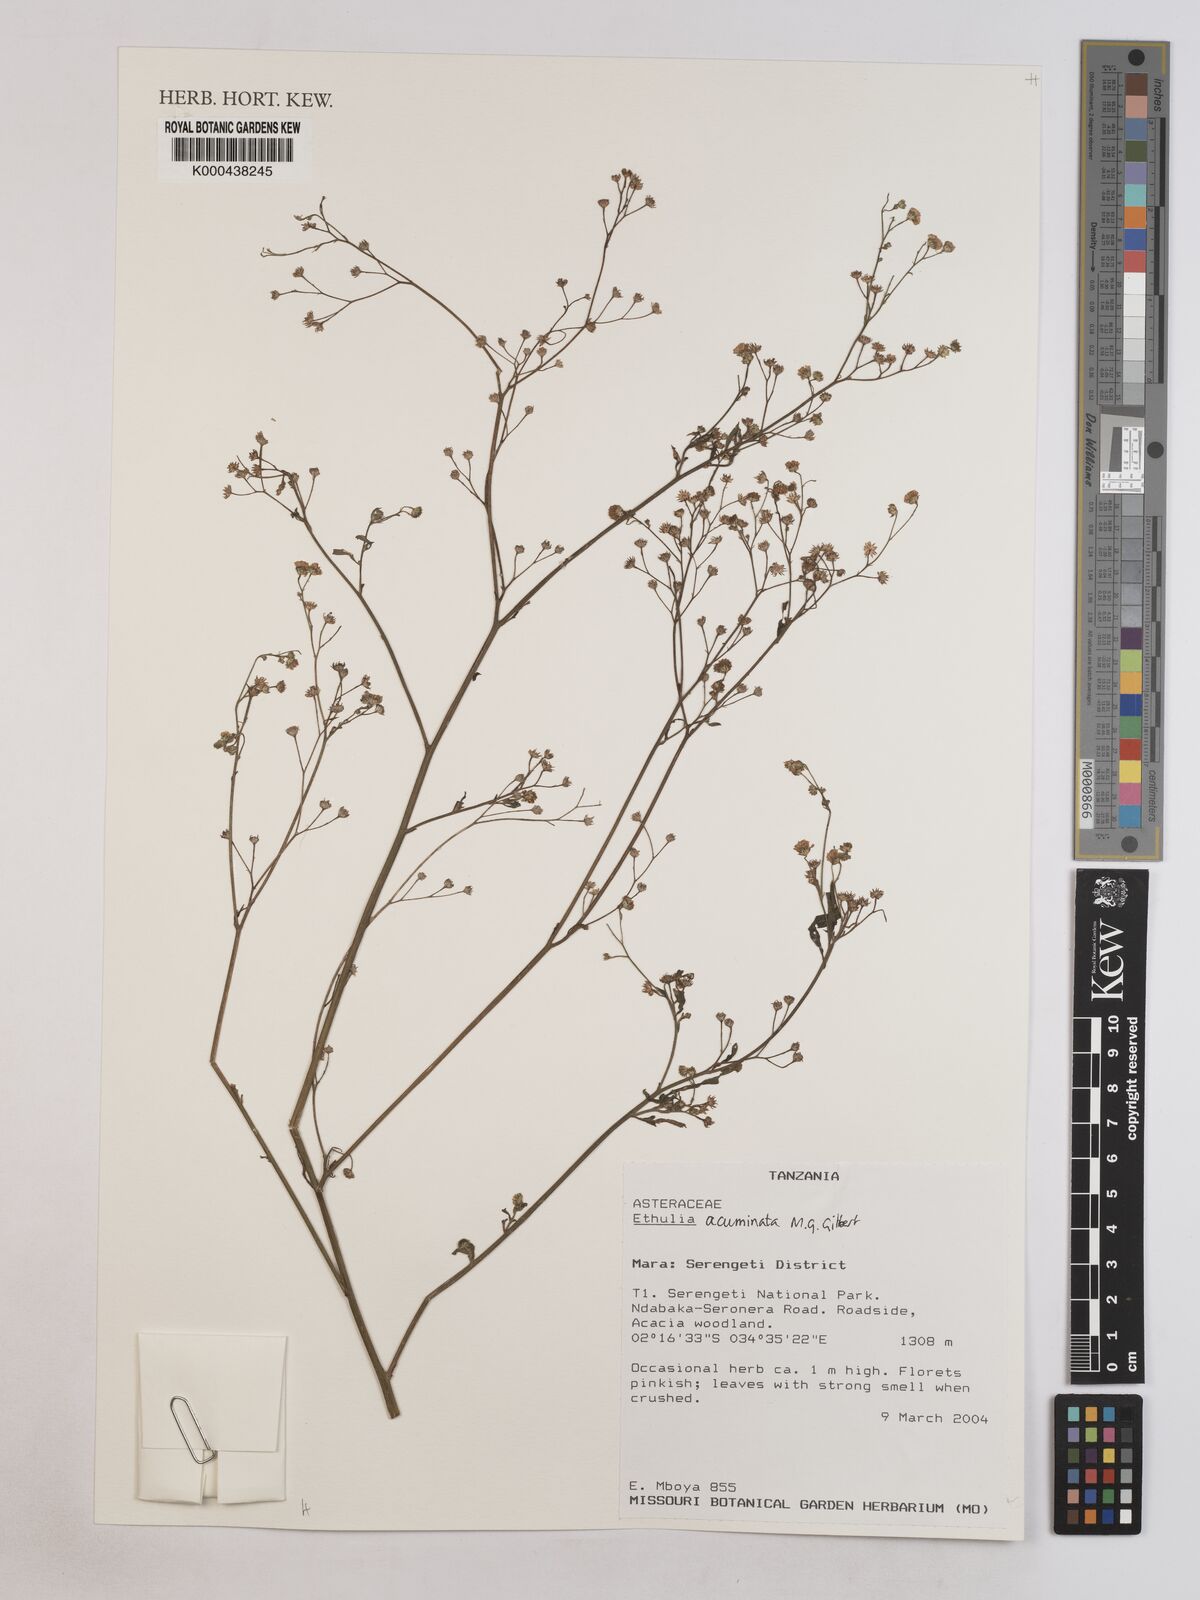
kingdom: Plantae
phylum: Tracheophyta
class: Magnoliopsida
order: Asterales
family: Asteraceae
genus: Ethulia
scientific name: Ethulia acuminata
